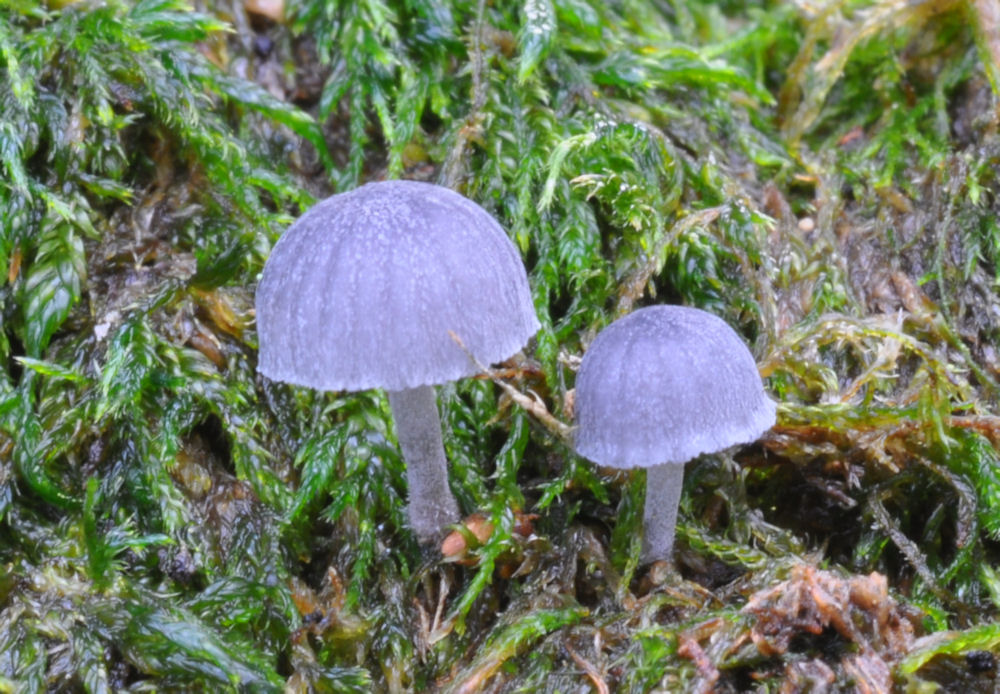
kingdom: Fungi
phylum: Basidiomycota
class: Agaricomycetes
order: Agaricales
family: Mycenaceae
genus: Mycena
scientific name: Mycena pseudocorticola
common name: gråblå bark-huesvamp
